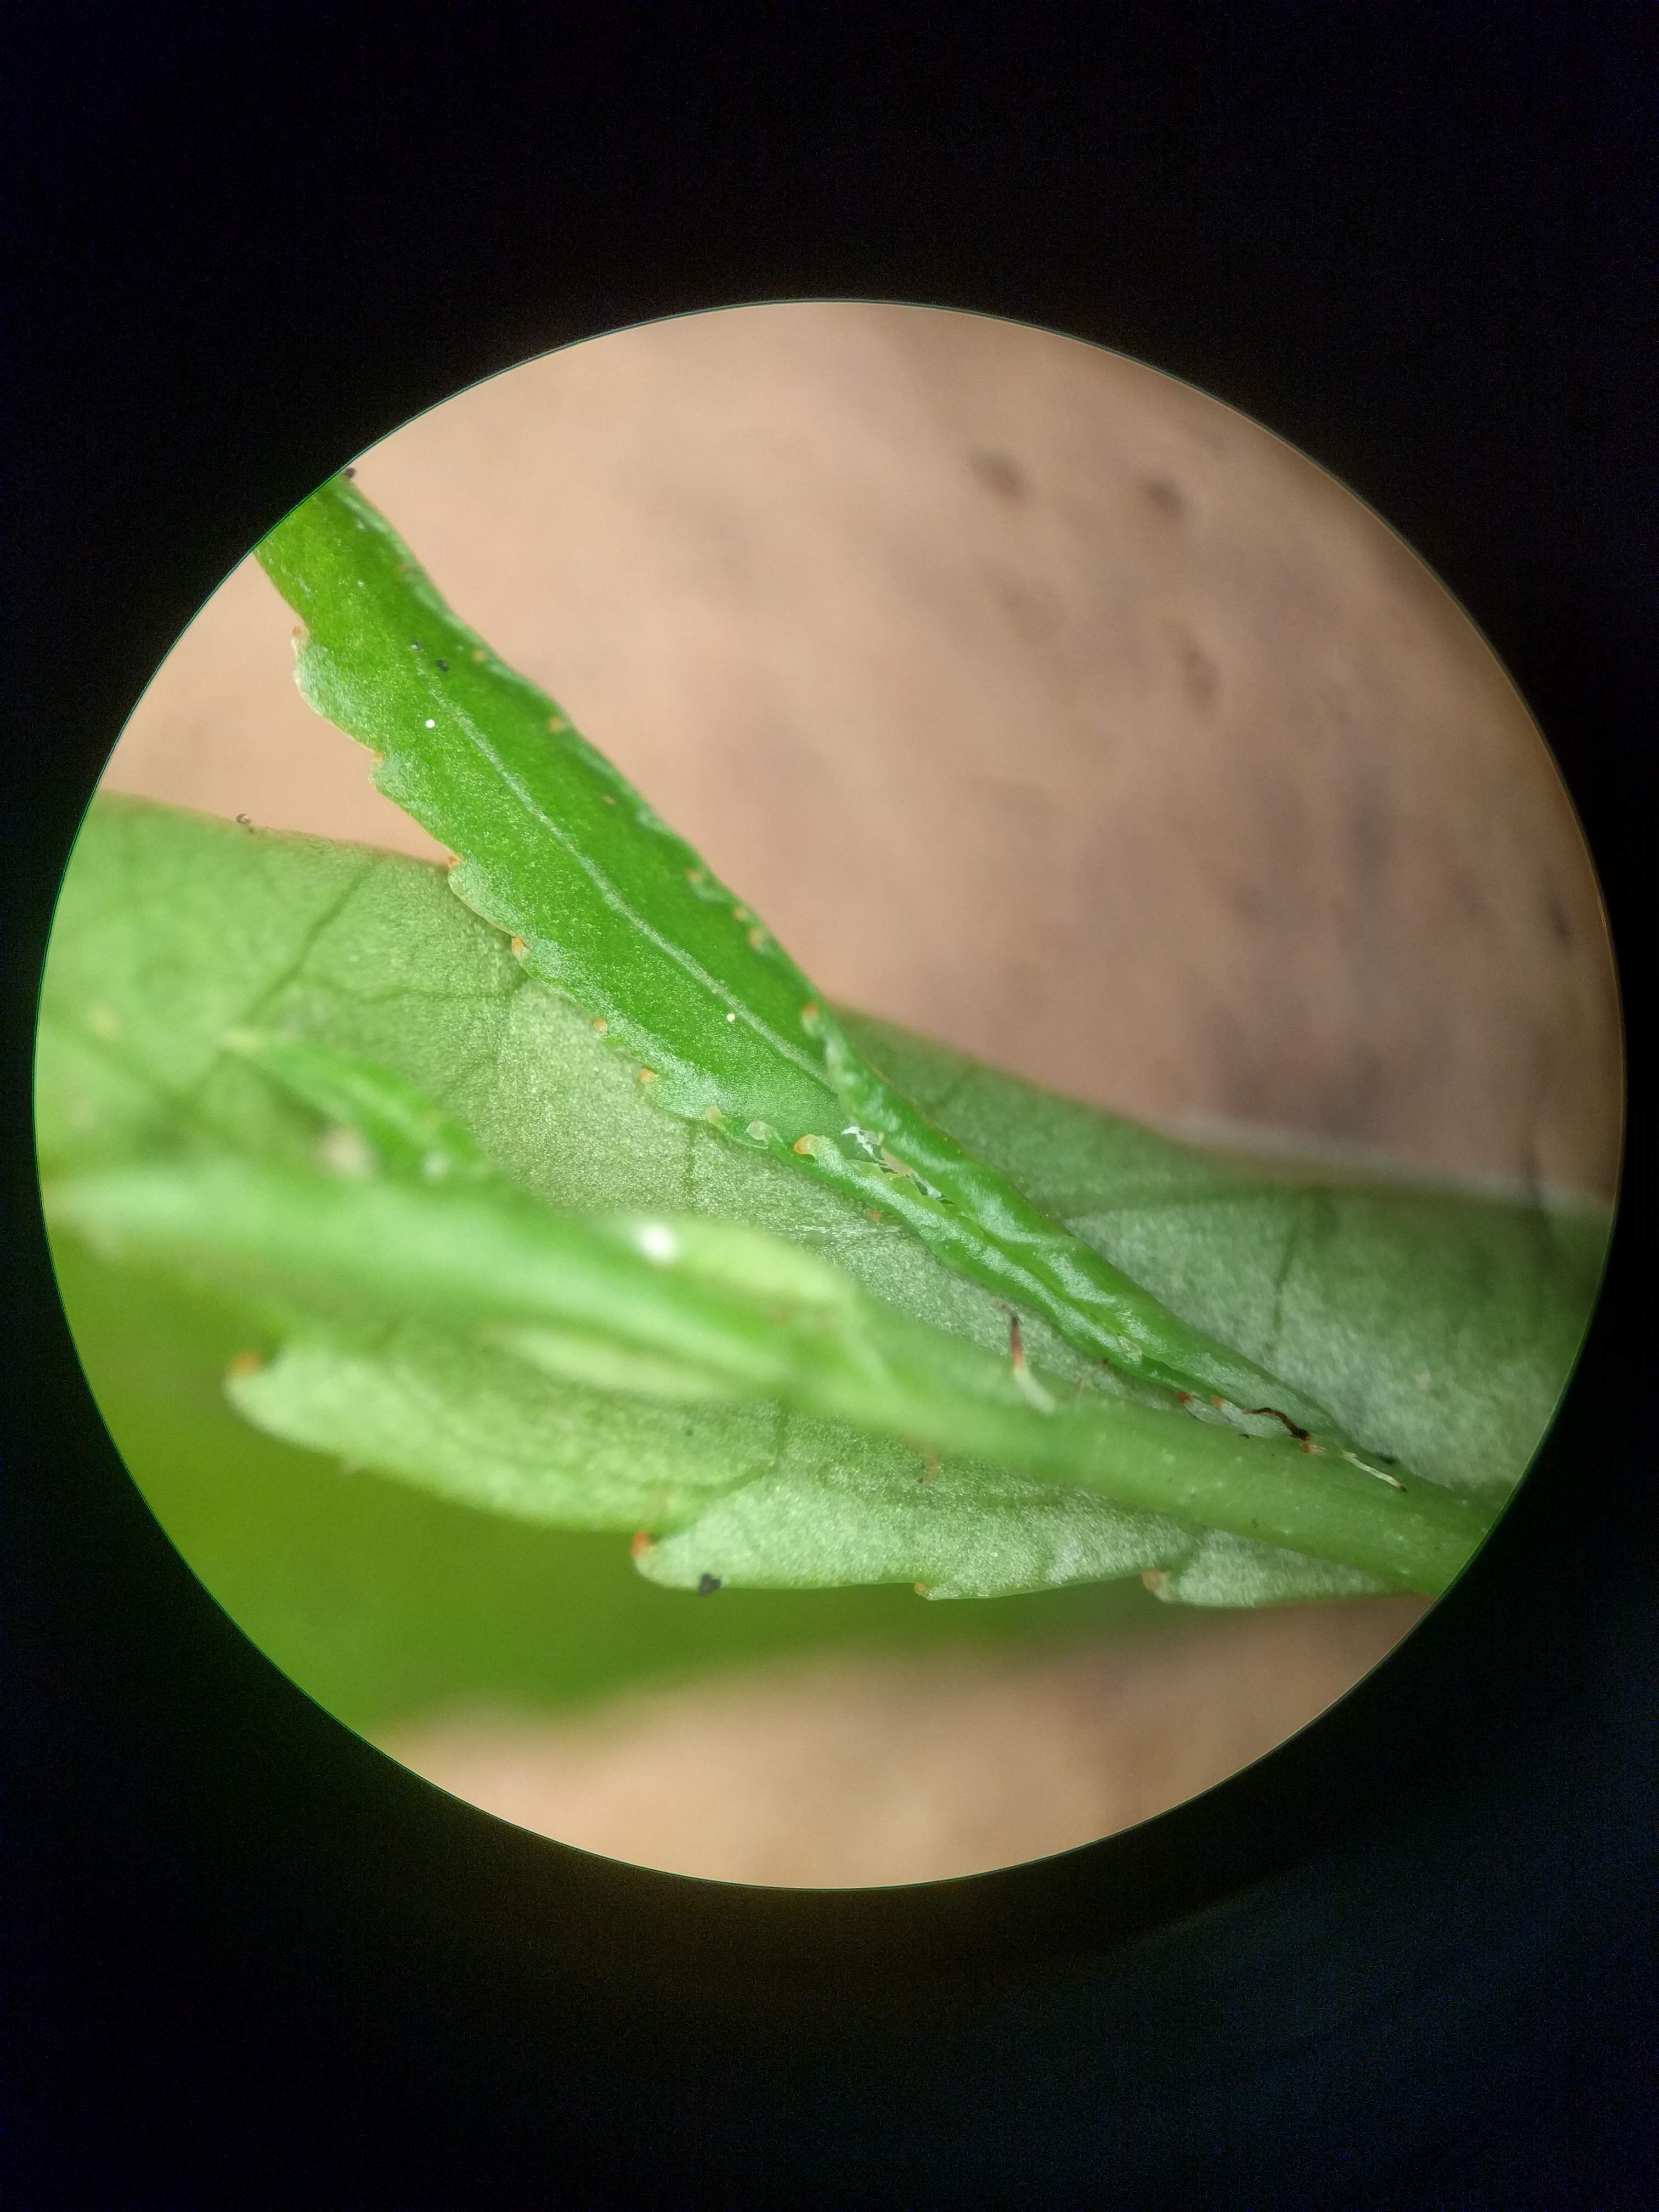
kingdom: Plantae
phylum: Tracheophyta
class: Magnoliopsida
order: Celastrales
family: Celastraceae
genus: Celastrus
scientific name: Celastrus scandens
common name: American bittersweet
